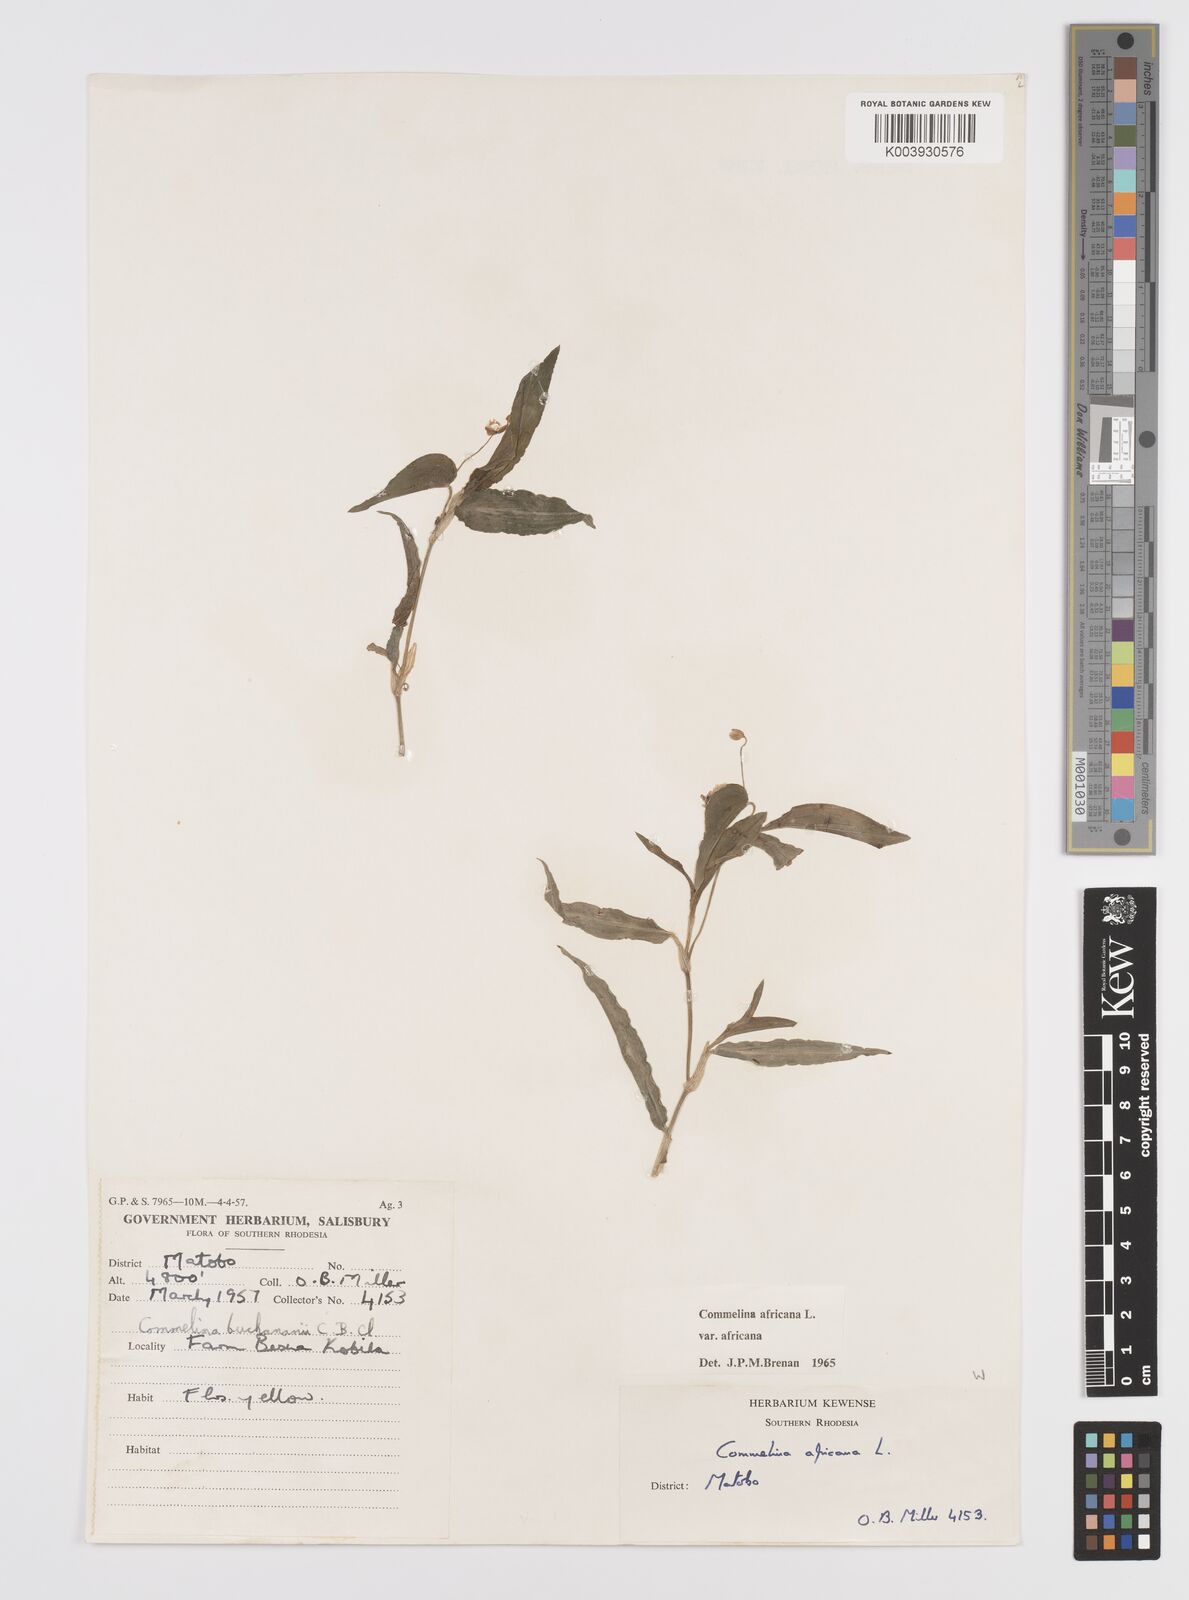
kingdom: Plantae
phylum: Tracheophyta
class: Liliopsida
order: Commelinales
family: Commelinaceae
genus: Commelina
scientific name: Commelina africana
